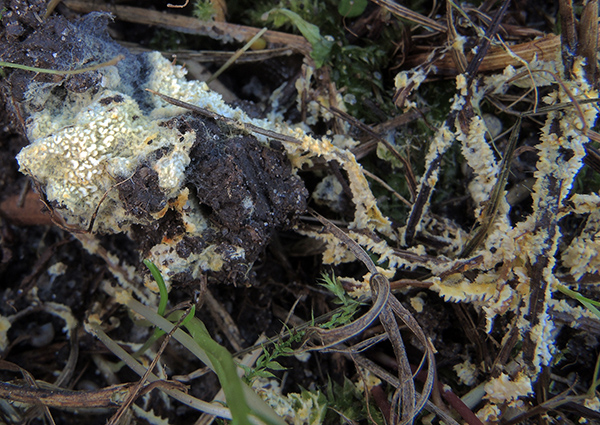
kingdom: Fungi
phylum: Basidiomycota
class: Agaricomycetes
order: Agaricales
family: Stephanosporaceae
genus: Lindtneria
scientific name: Lindtneria panphyliensis
